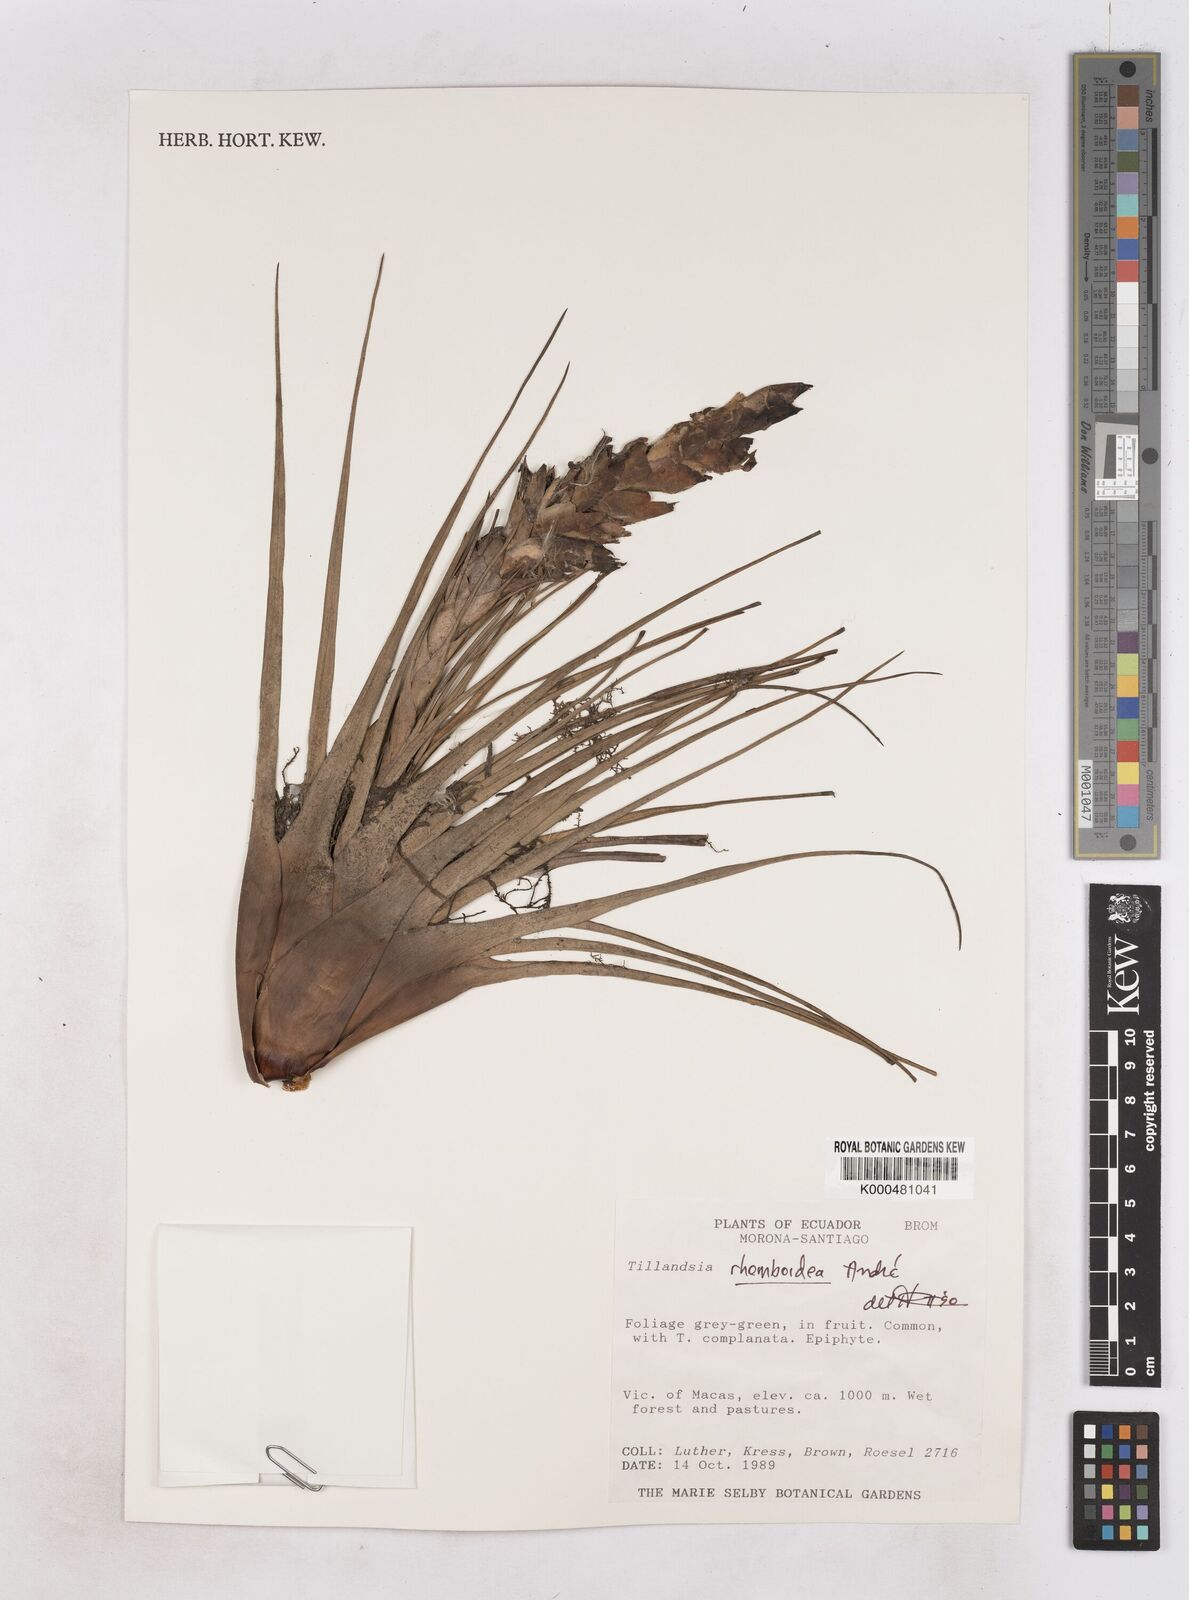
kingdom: Plantae
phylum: Tracheophyta
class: Liliopsida
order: Poales
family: Bromeliaceae
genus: Tillandsia
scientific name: Tillandsia
